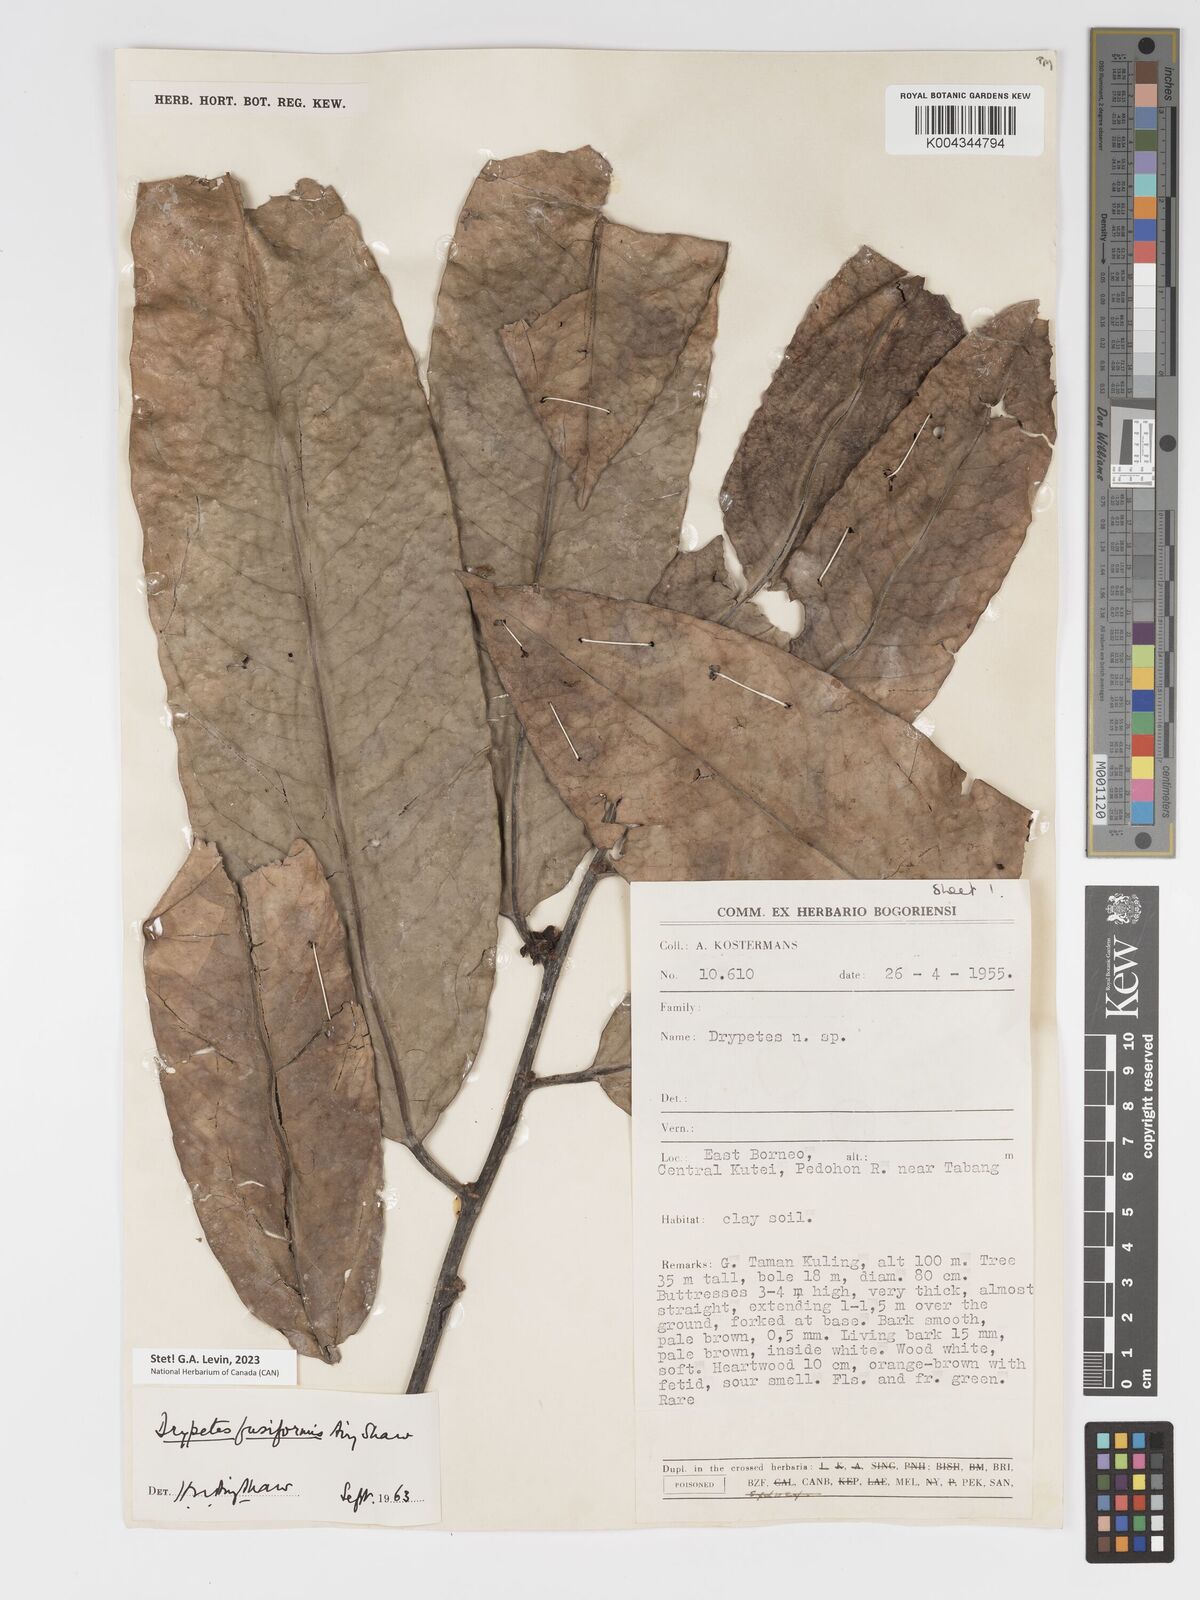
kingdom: Plantae
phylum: Tracheophyta
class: Magnoliopsida
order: Malpighiales
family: Putranjivaceae
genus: Drypetes
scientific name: Drypetes fusiformis
